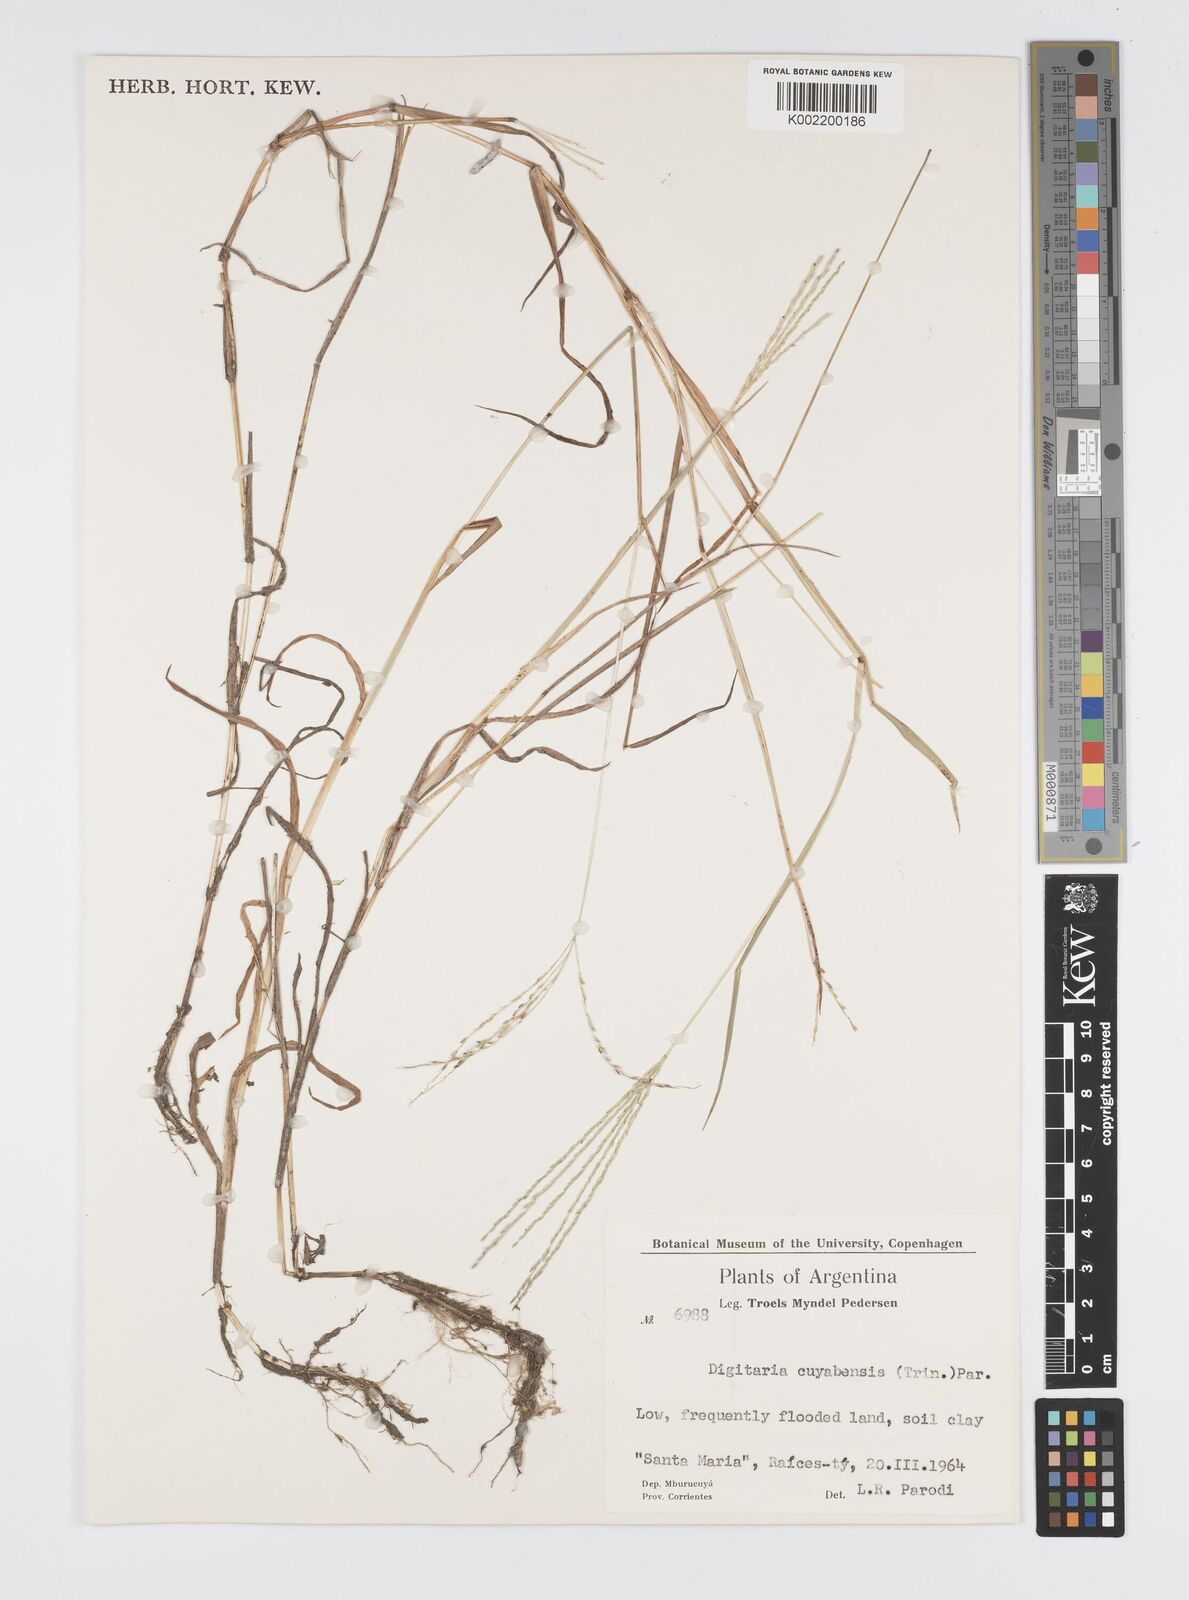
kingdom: Plantae
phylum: Tracheophyta
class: Liliopsida
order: Poales
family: Poaceae
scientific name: Poaceae
